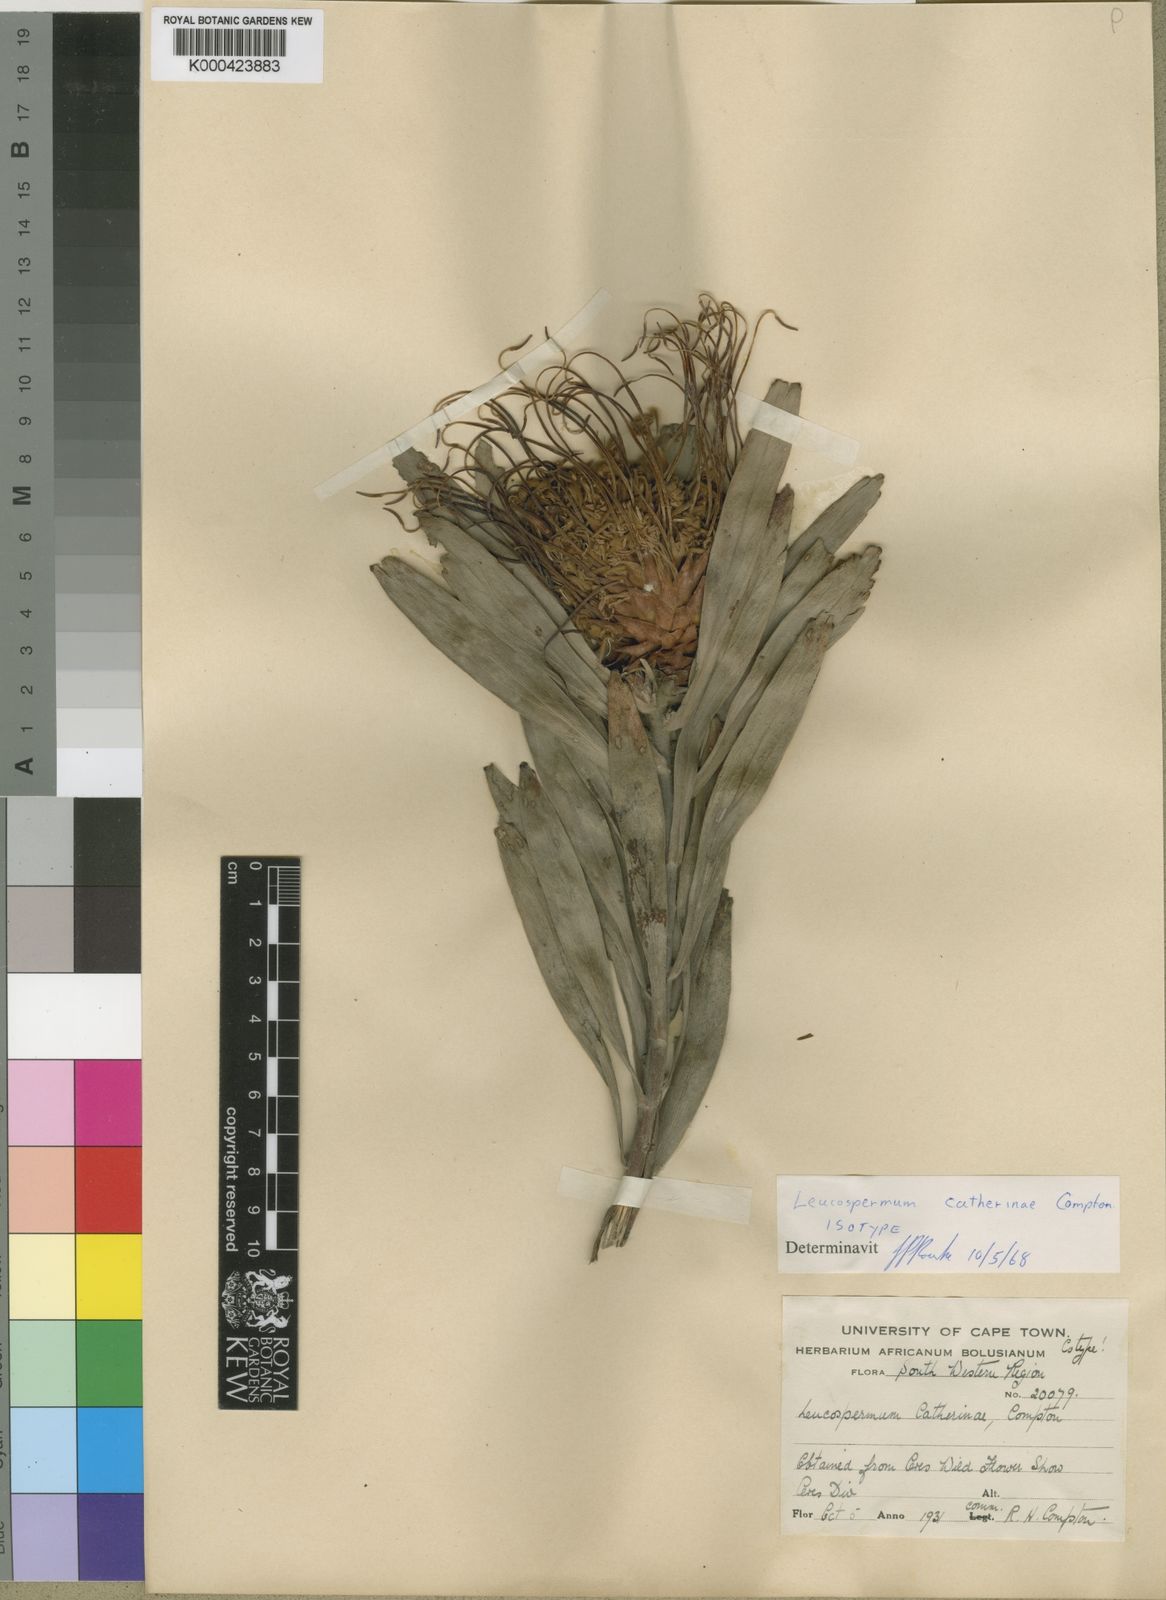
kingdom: Plantae
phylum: Tracheophyta
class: Magnoliopsida
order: Proteales
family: Proteaceae
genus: Leucospermum
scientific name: Leucospermum catherinae
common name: Catherine-wheel pincushion
